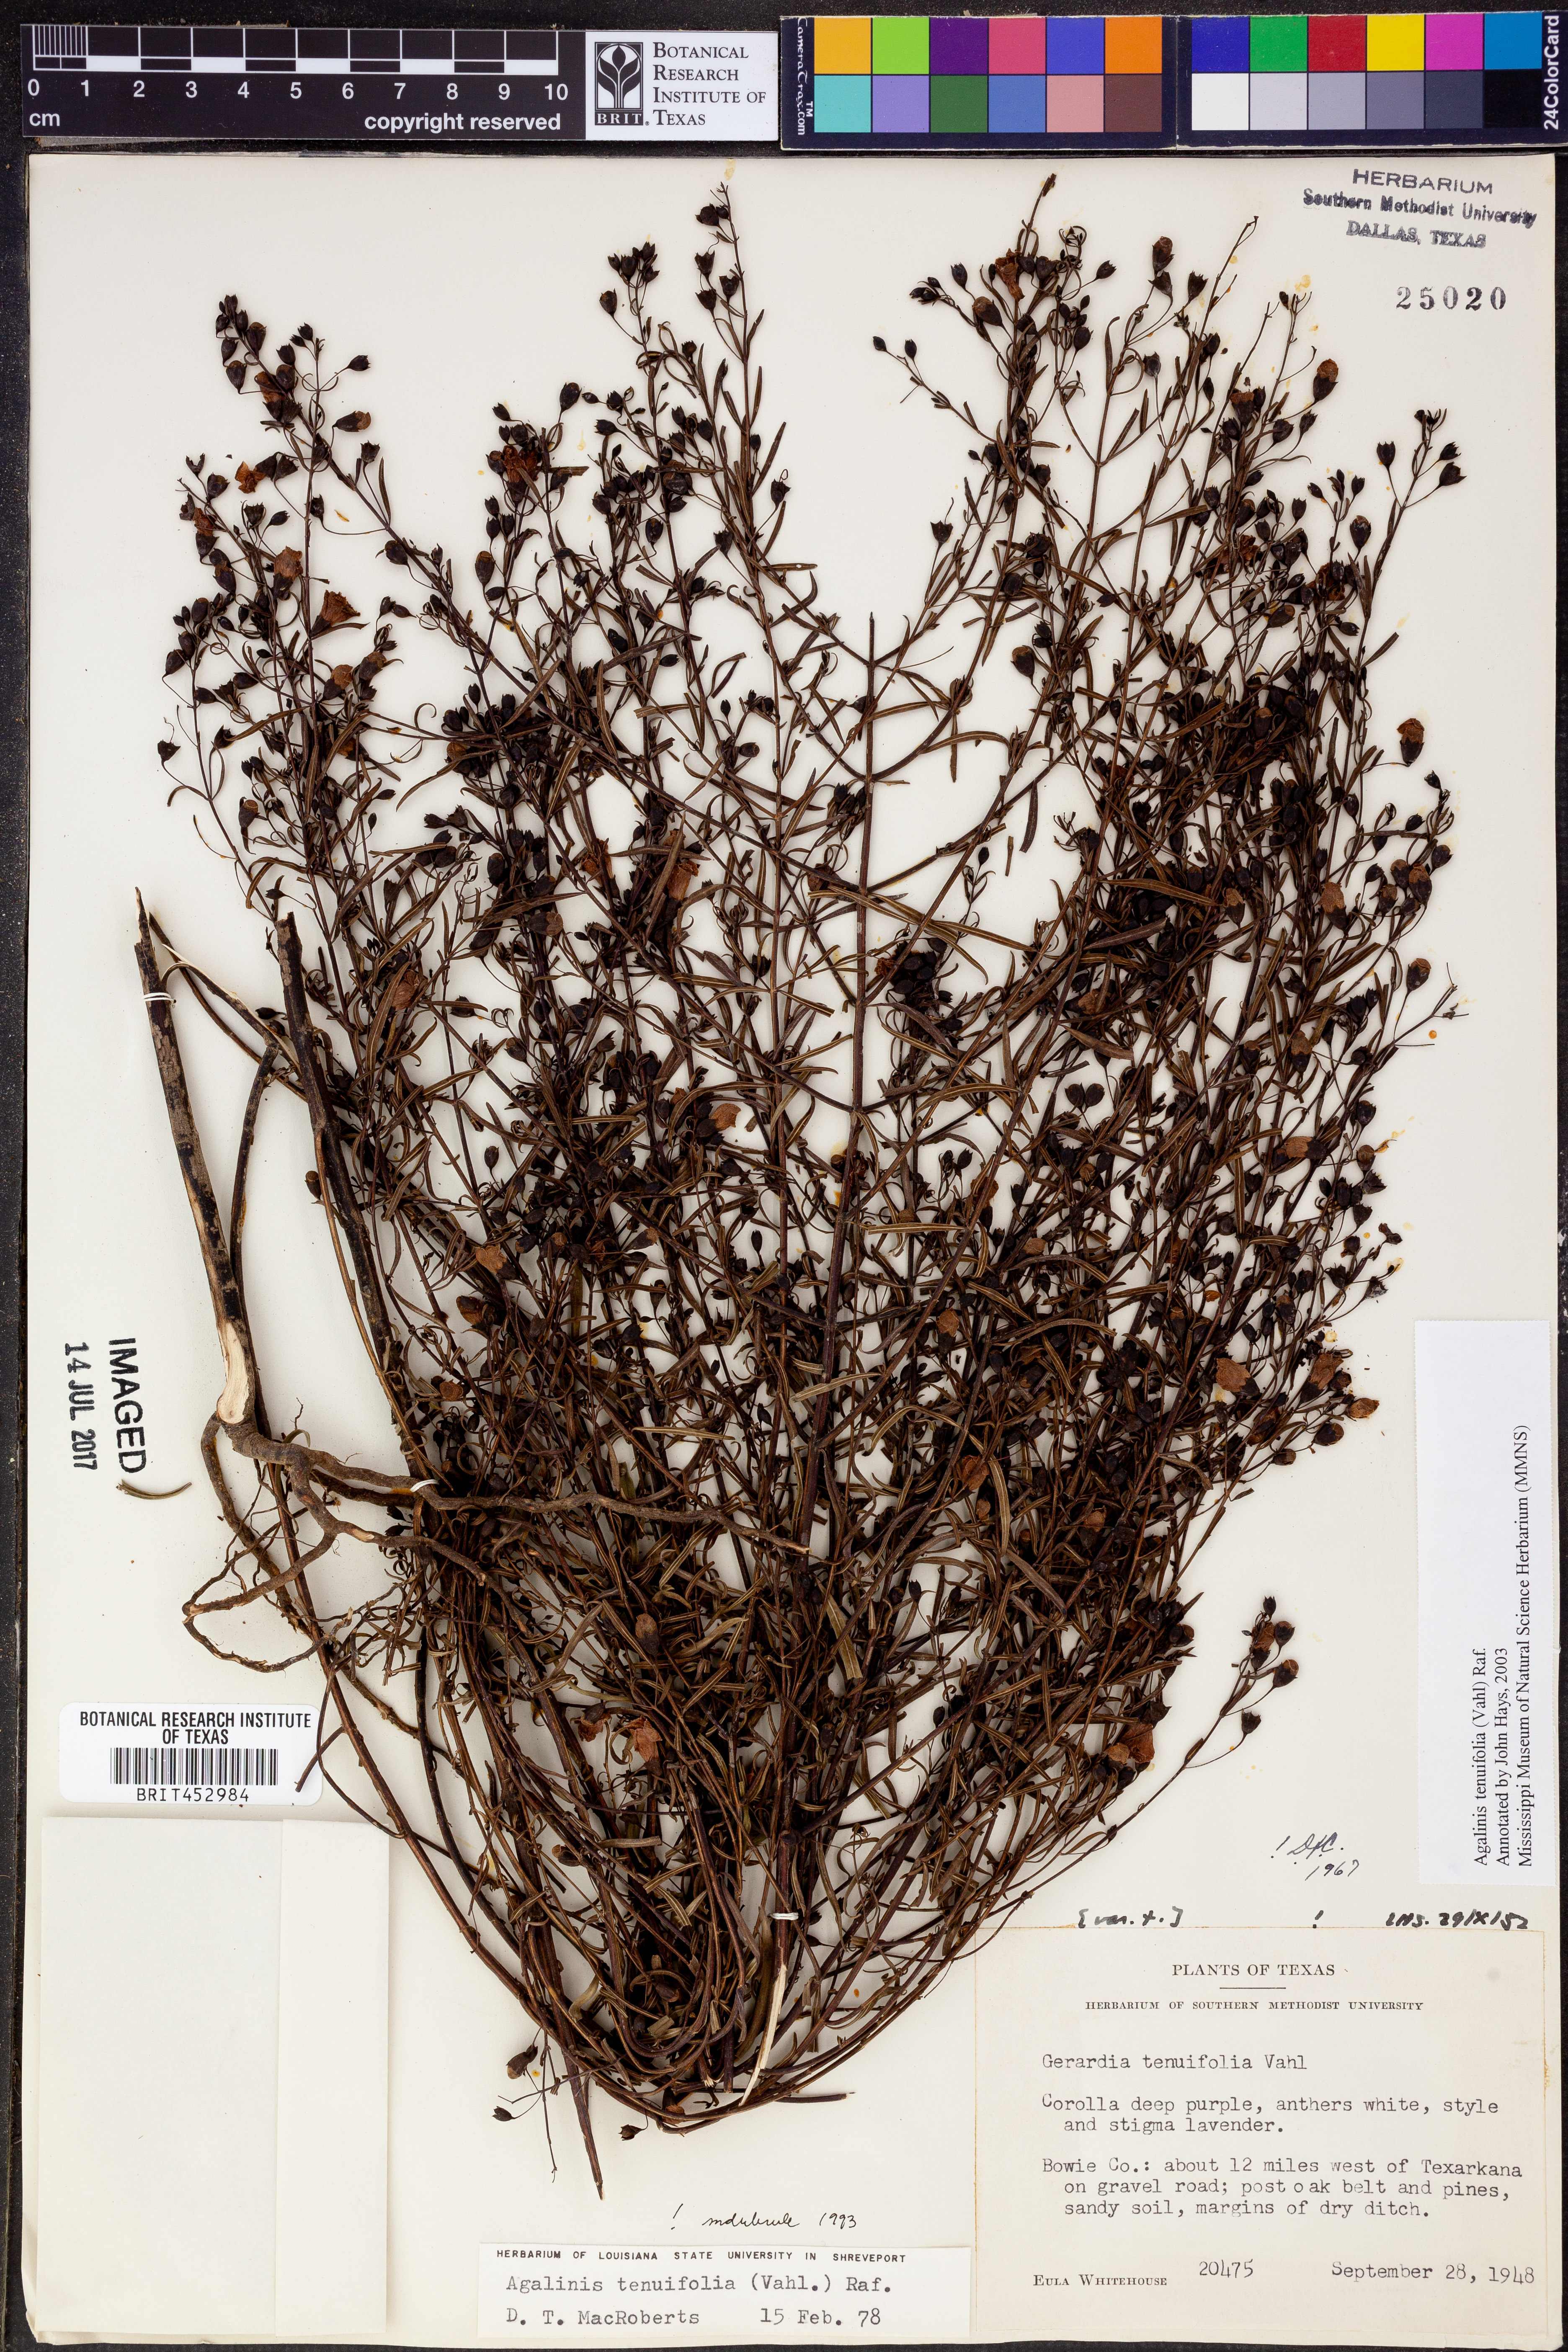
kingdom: Plantae
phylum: Tracheophyta
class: Magnoliopsida
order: Lamiales
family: Orobanchaceae
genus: Agalinis
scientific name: Agalinis tenuifolia
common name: Slender agalinis
